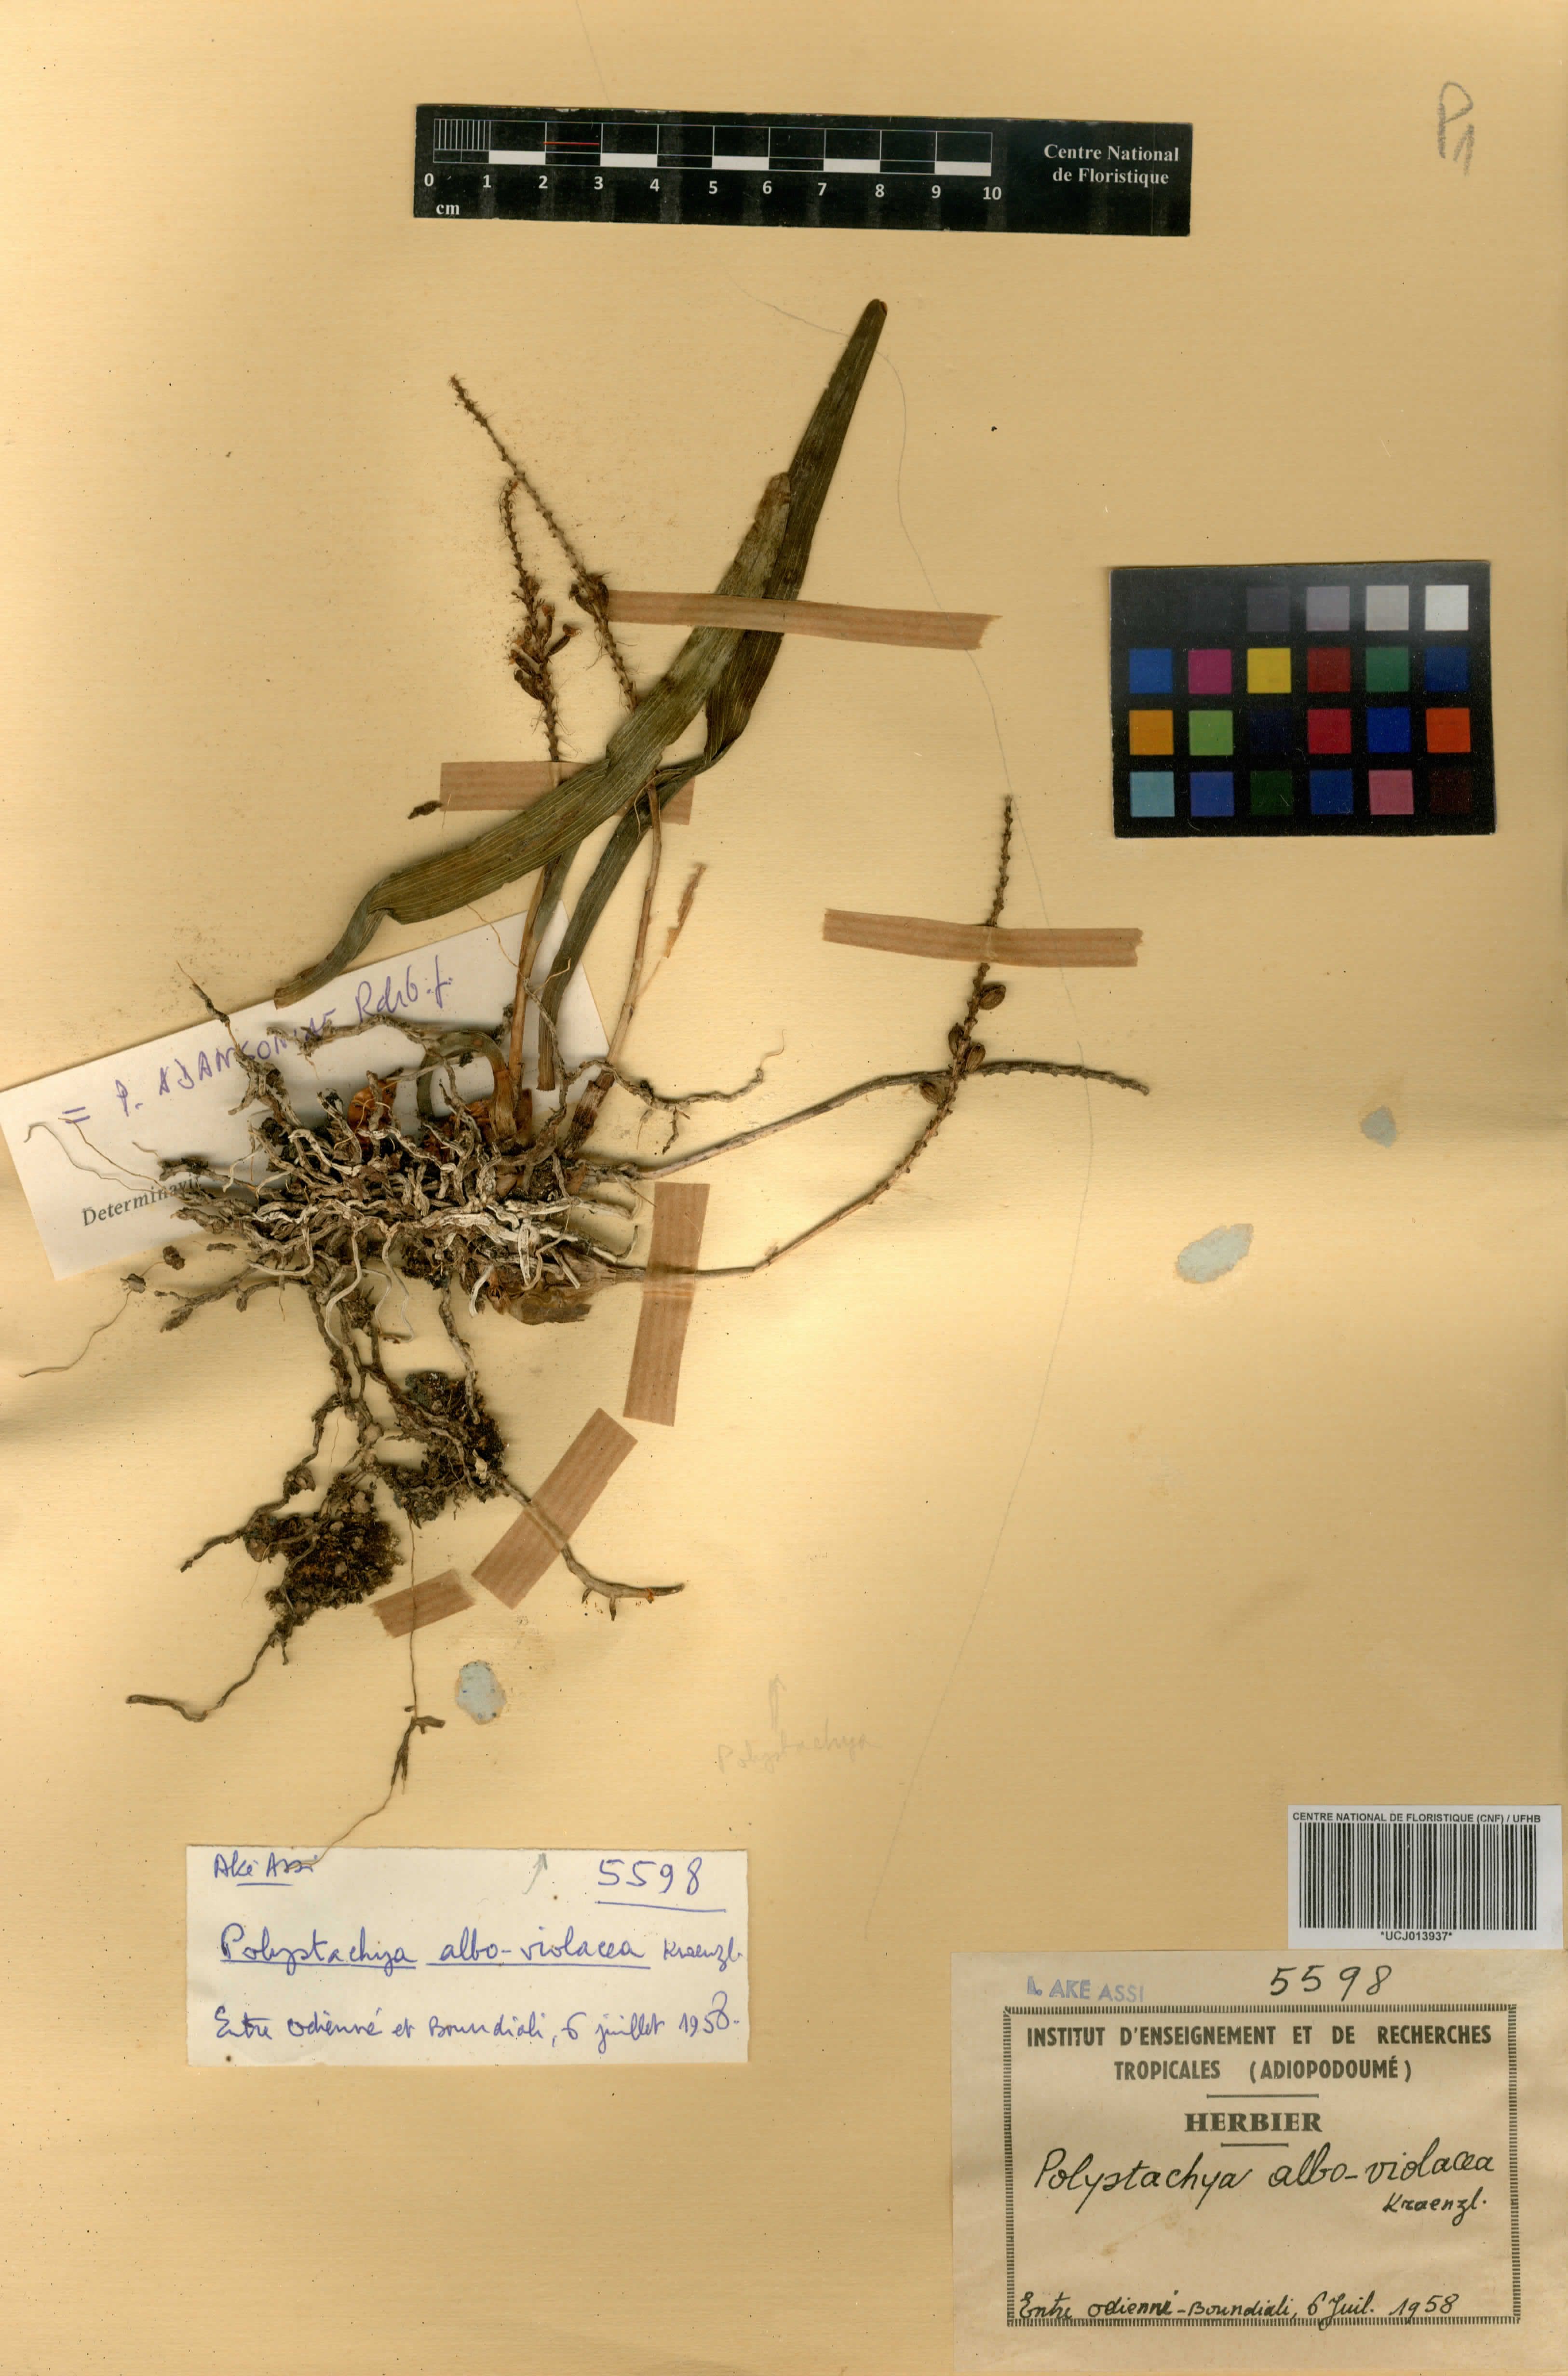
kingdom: Plantae
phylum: Tracheophyta
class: Liliopsida
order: Asparagales
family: Orchidaceae
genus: Polystachya
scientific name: Polystachya adansoniae
